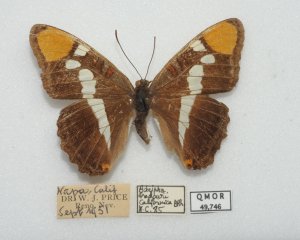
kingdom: Animalia
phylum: Arthropoda
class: Insecta
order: Lepidoptera
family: Nymphalidae
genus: Limenitis
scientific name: Limenitis bredowii
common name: California Sister
